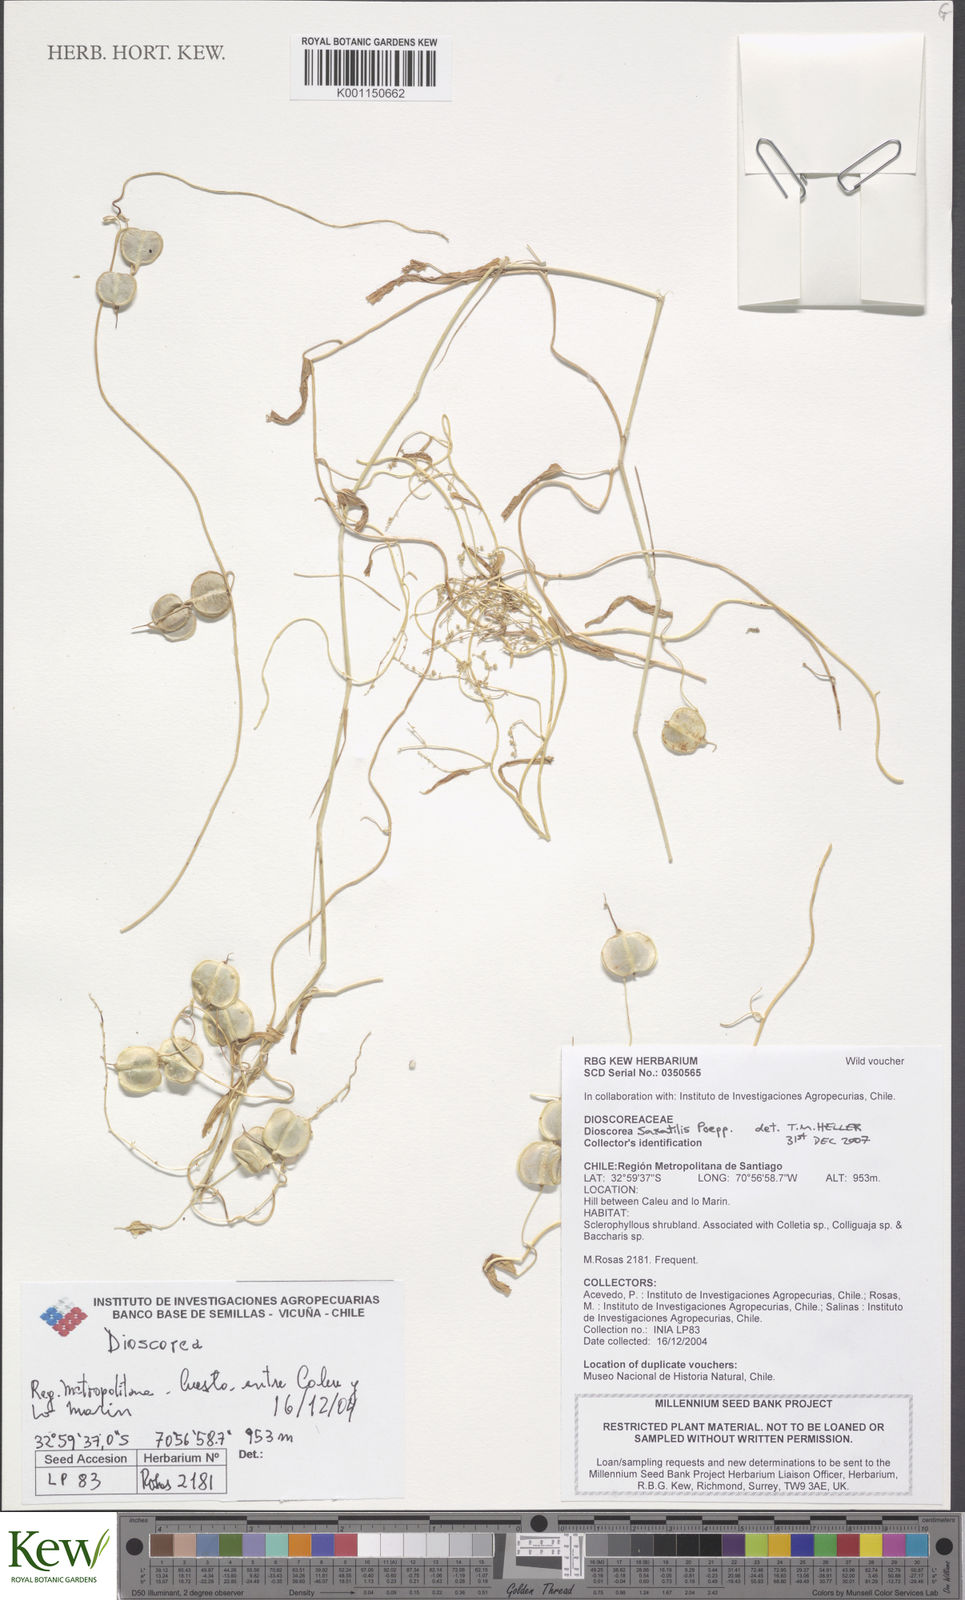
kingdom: Plantae
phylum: Tracheophyta
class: Liliopsida
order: Dioscoreales
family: Dioscoreaceae
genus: Dioscorea
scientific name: Dioscorea saxatilis
